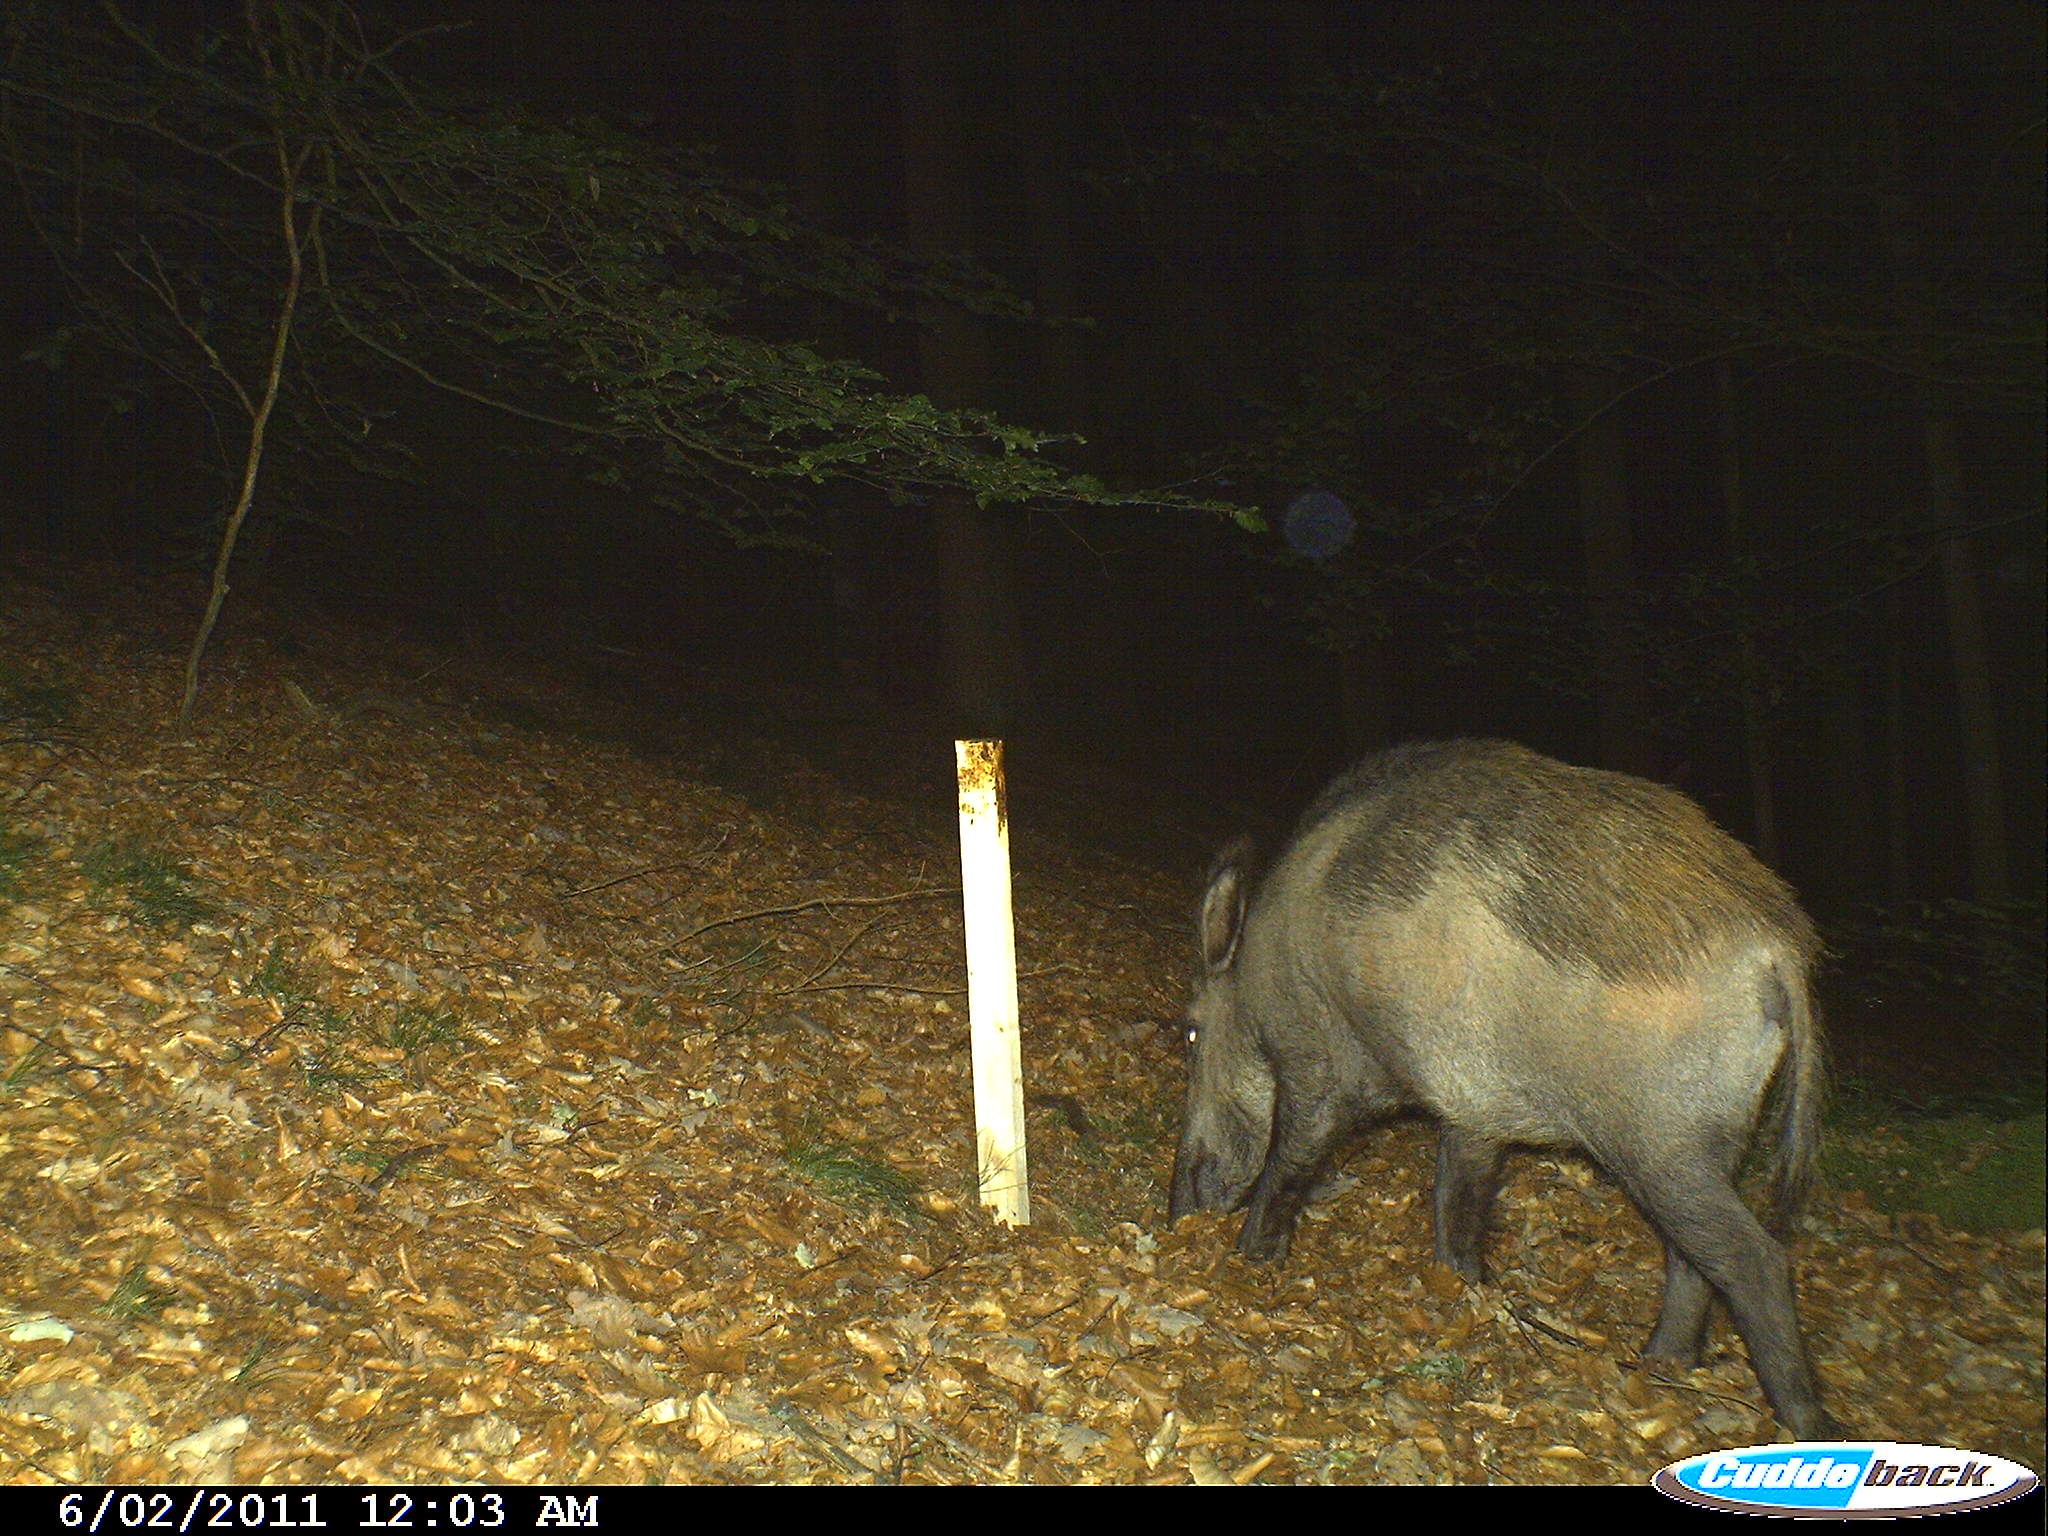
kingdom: Animalia
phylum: Chordata
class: Mammalia
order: Artiodactyla
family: Suidae
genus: Sus
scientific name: Sus scrofa
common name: Wild boar
